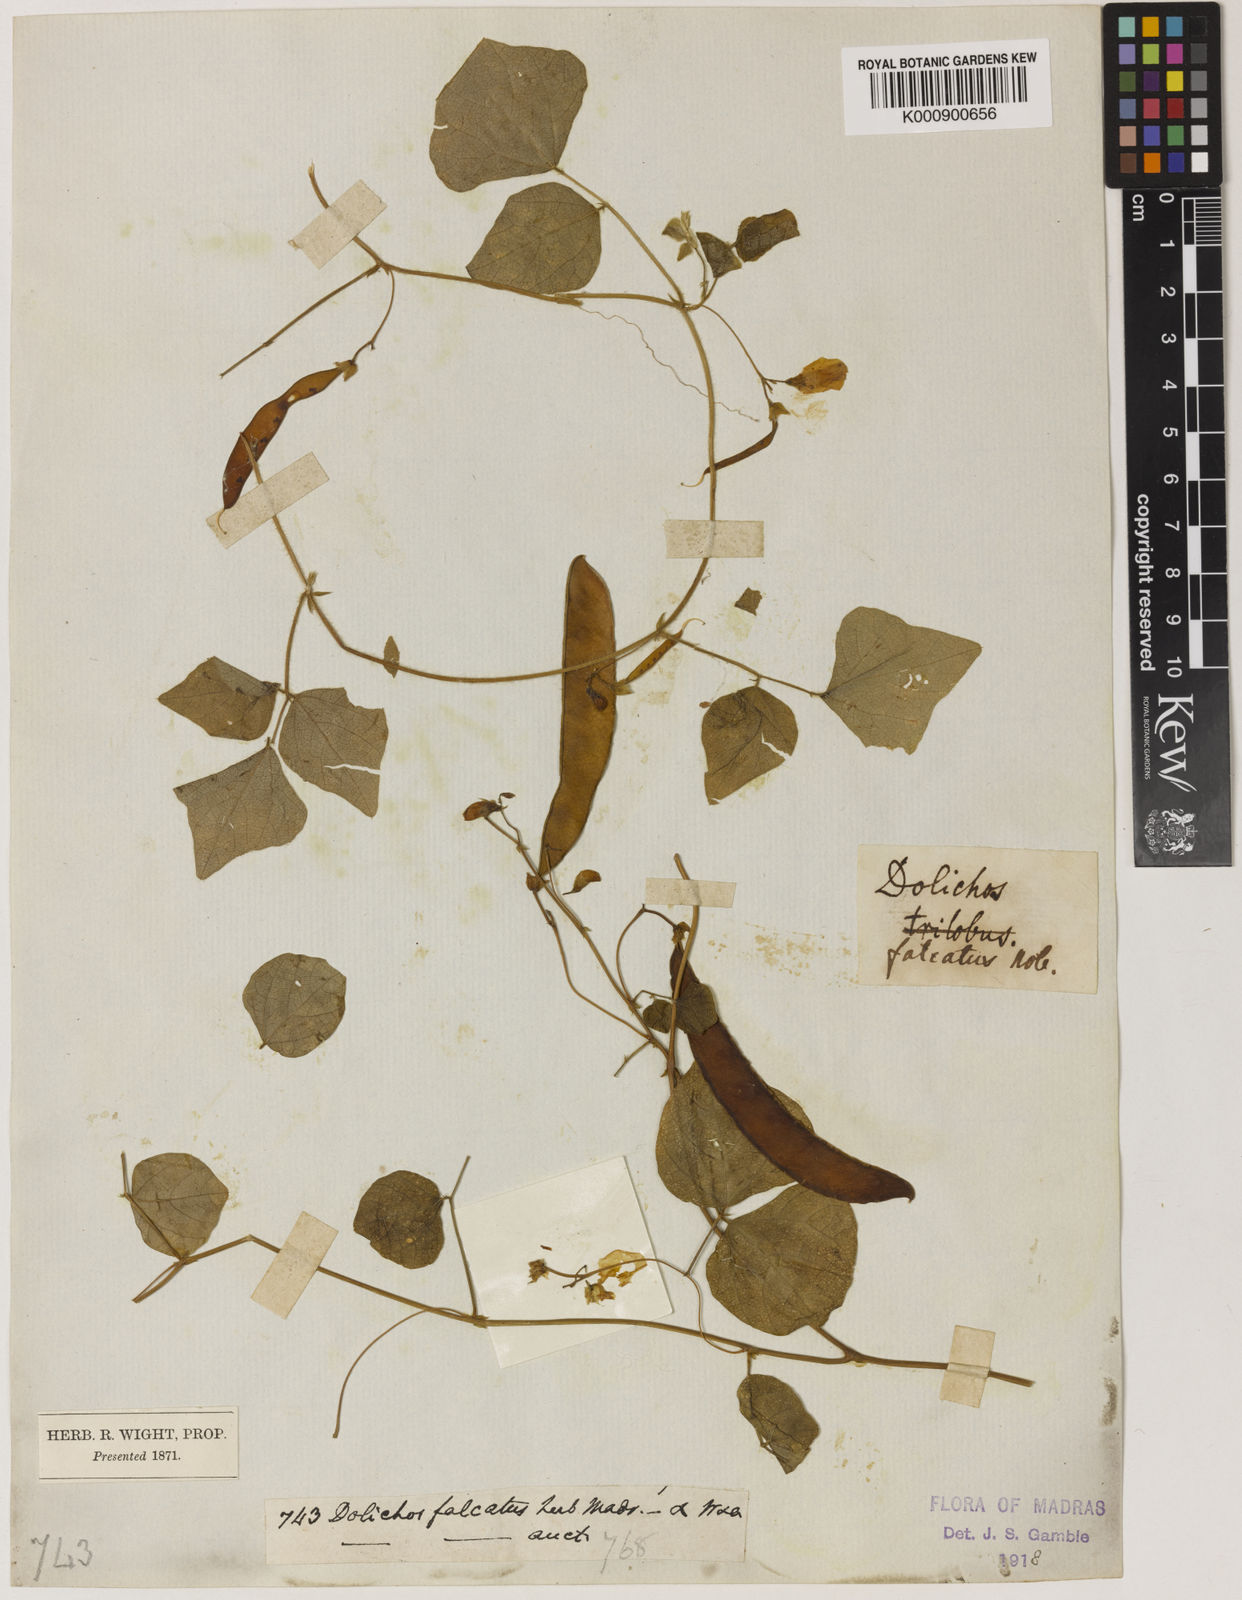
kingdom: Plantae
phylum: Tracheophyta
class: Magnoliopsida
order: Fabales
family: Fabaceae
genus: Dolichos
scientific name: Dolichos trilobus
